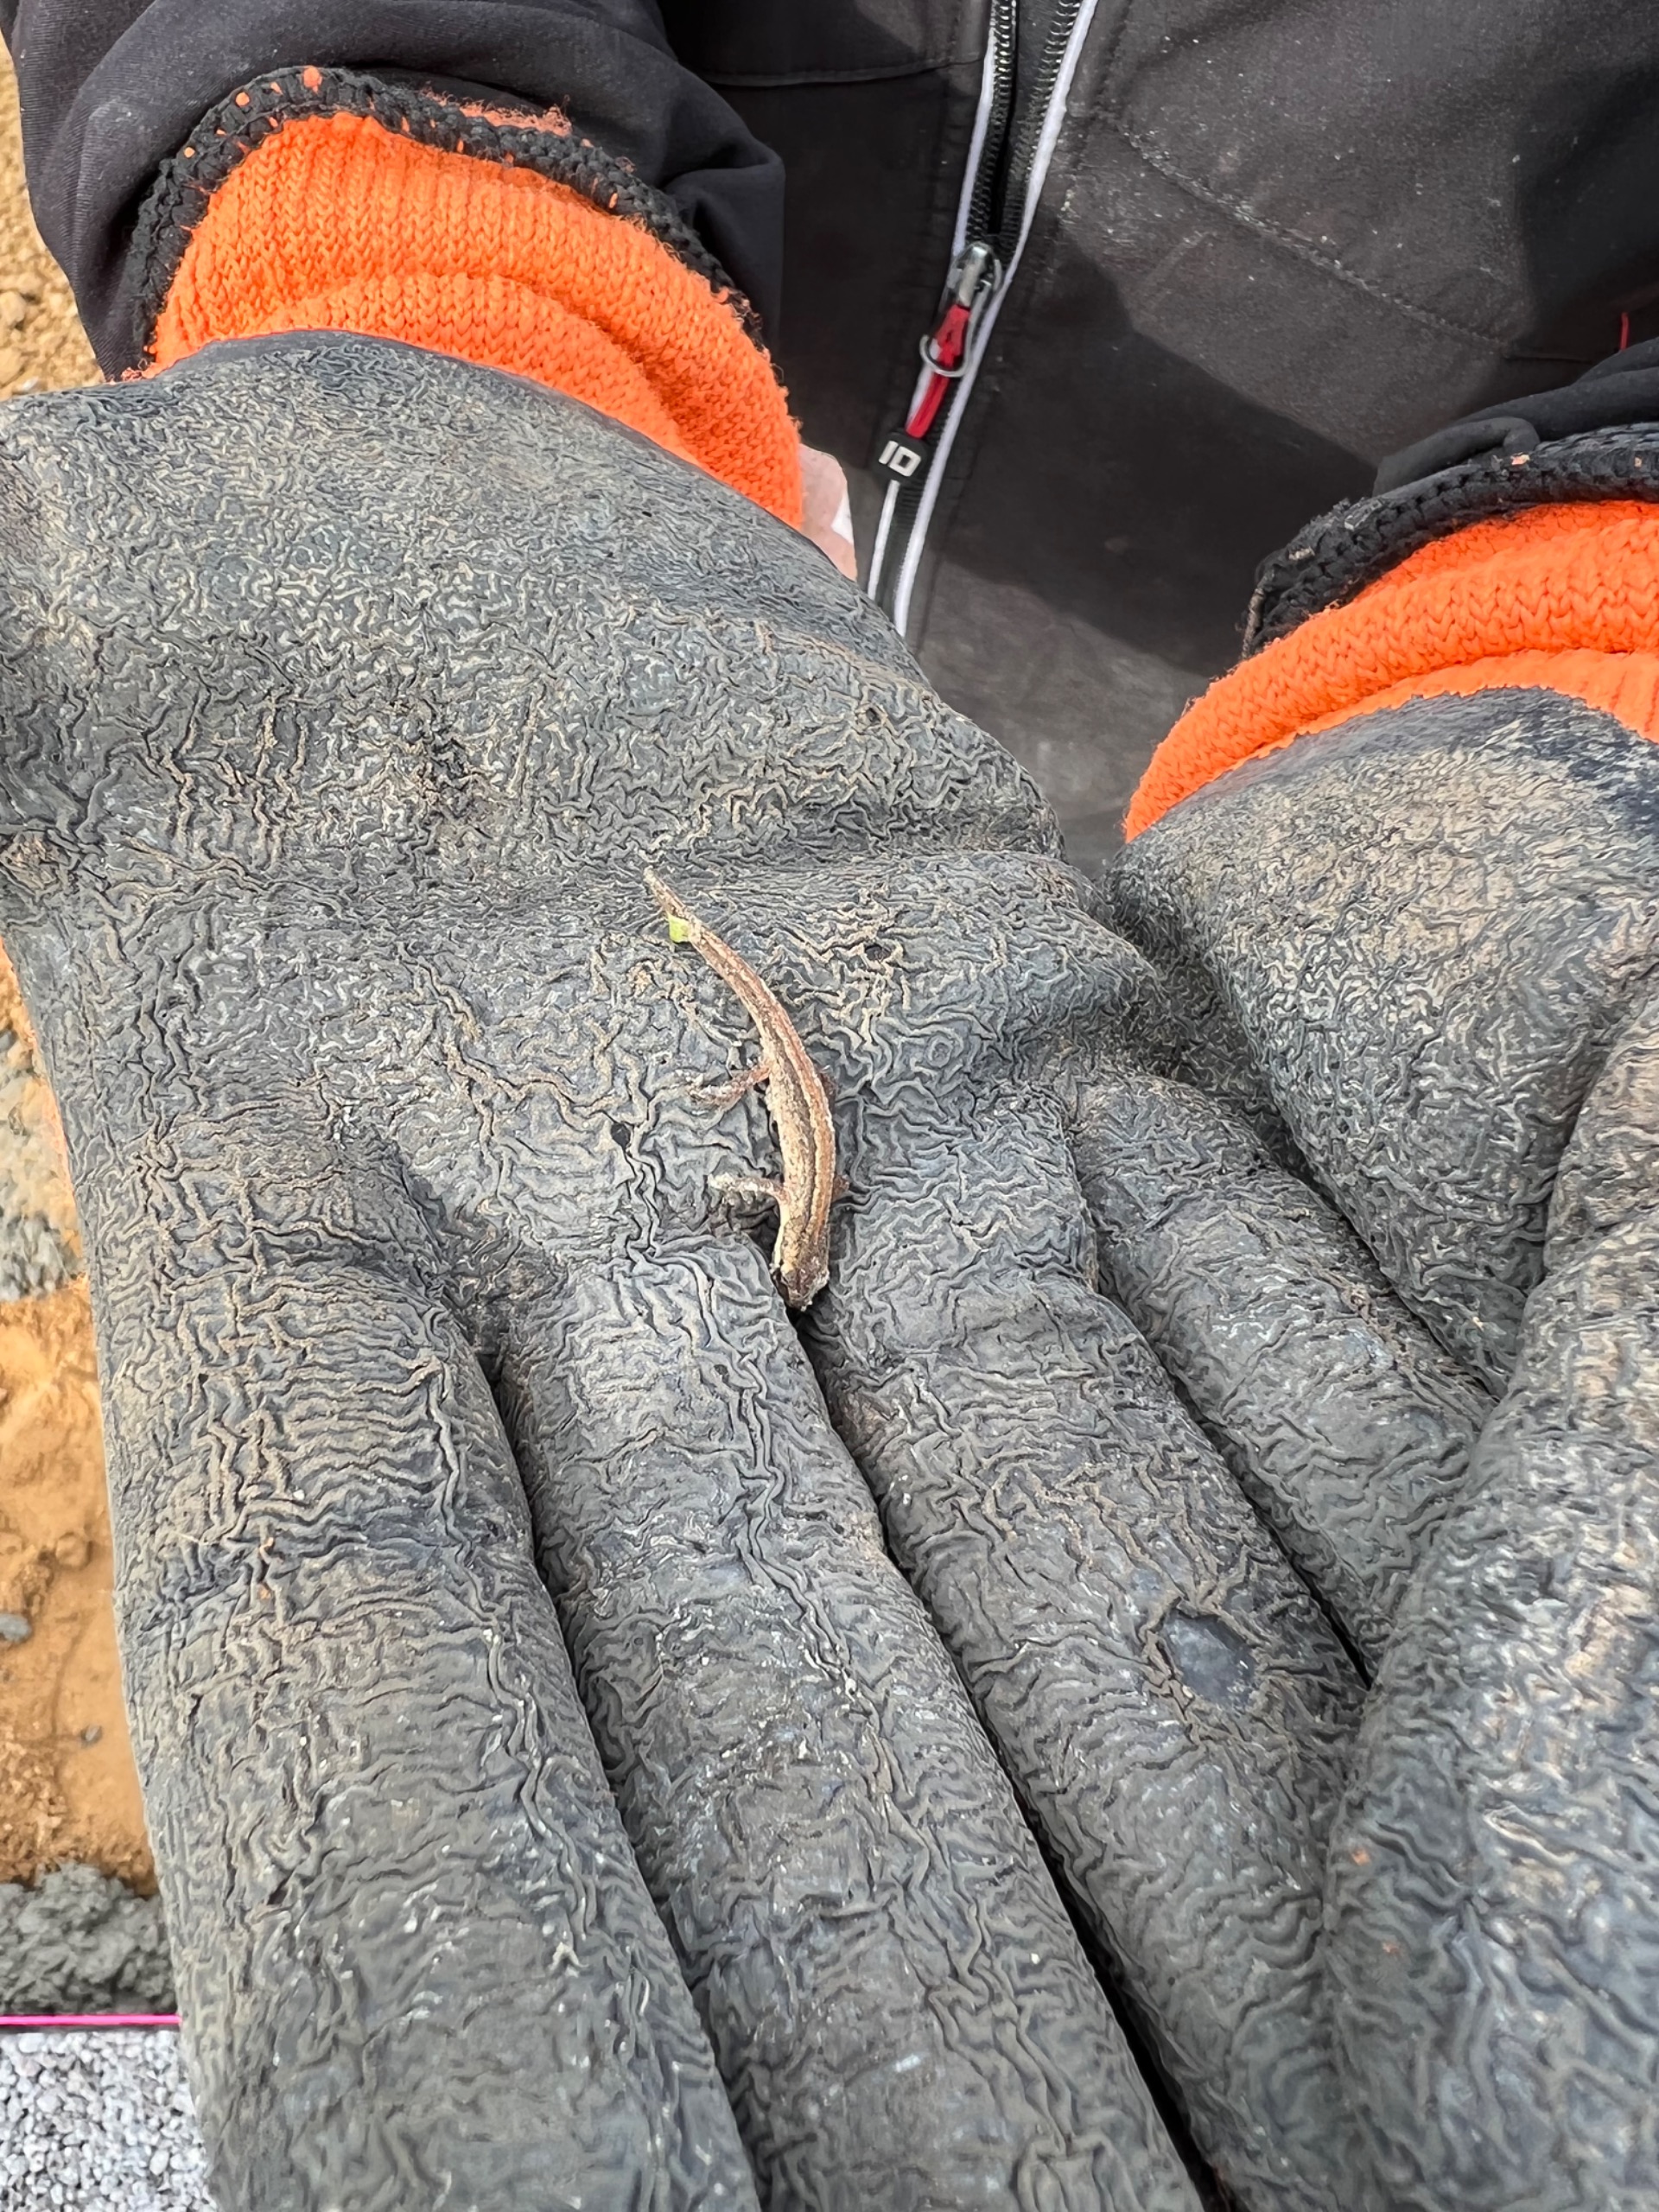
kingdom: Animalia
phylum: Chordata
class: Amphibia
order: Caudata
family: Salamandridae
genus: Lissotriton
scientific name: Lissotriton vulgaris
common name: Lille vandsalamander
